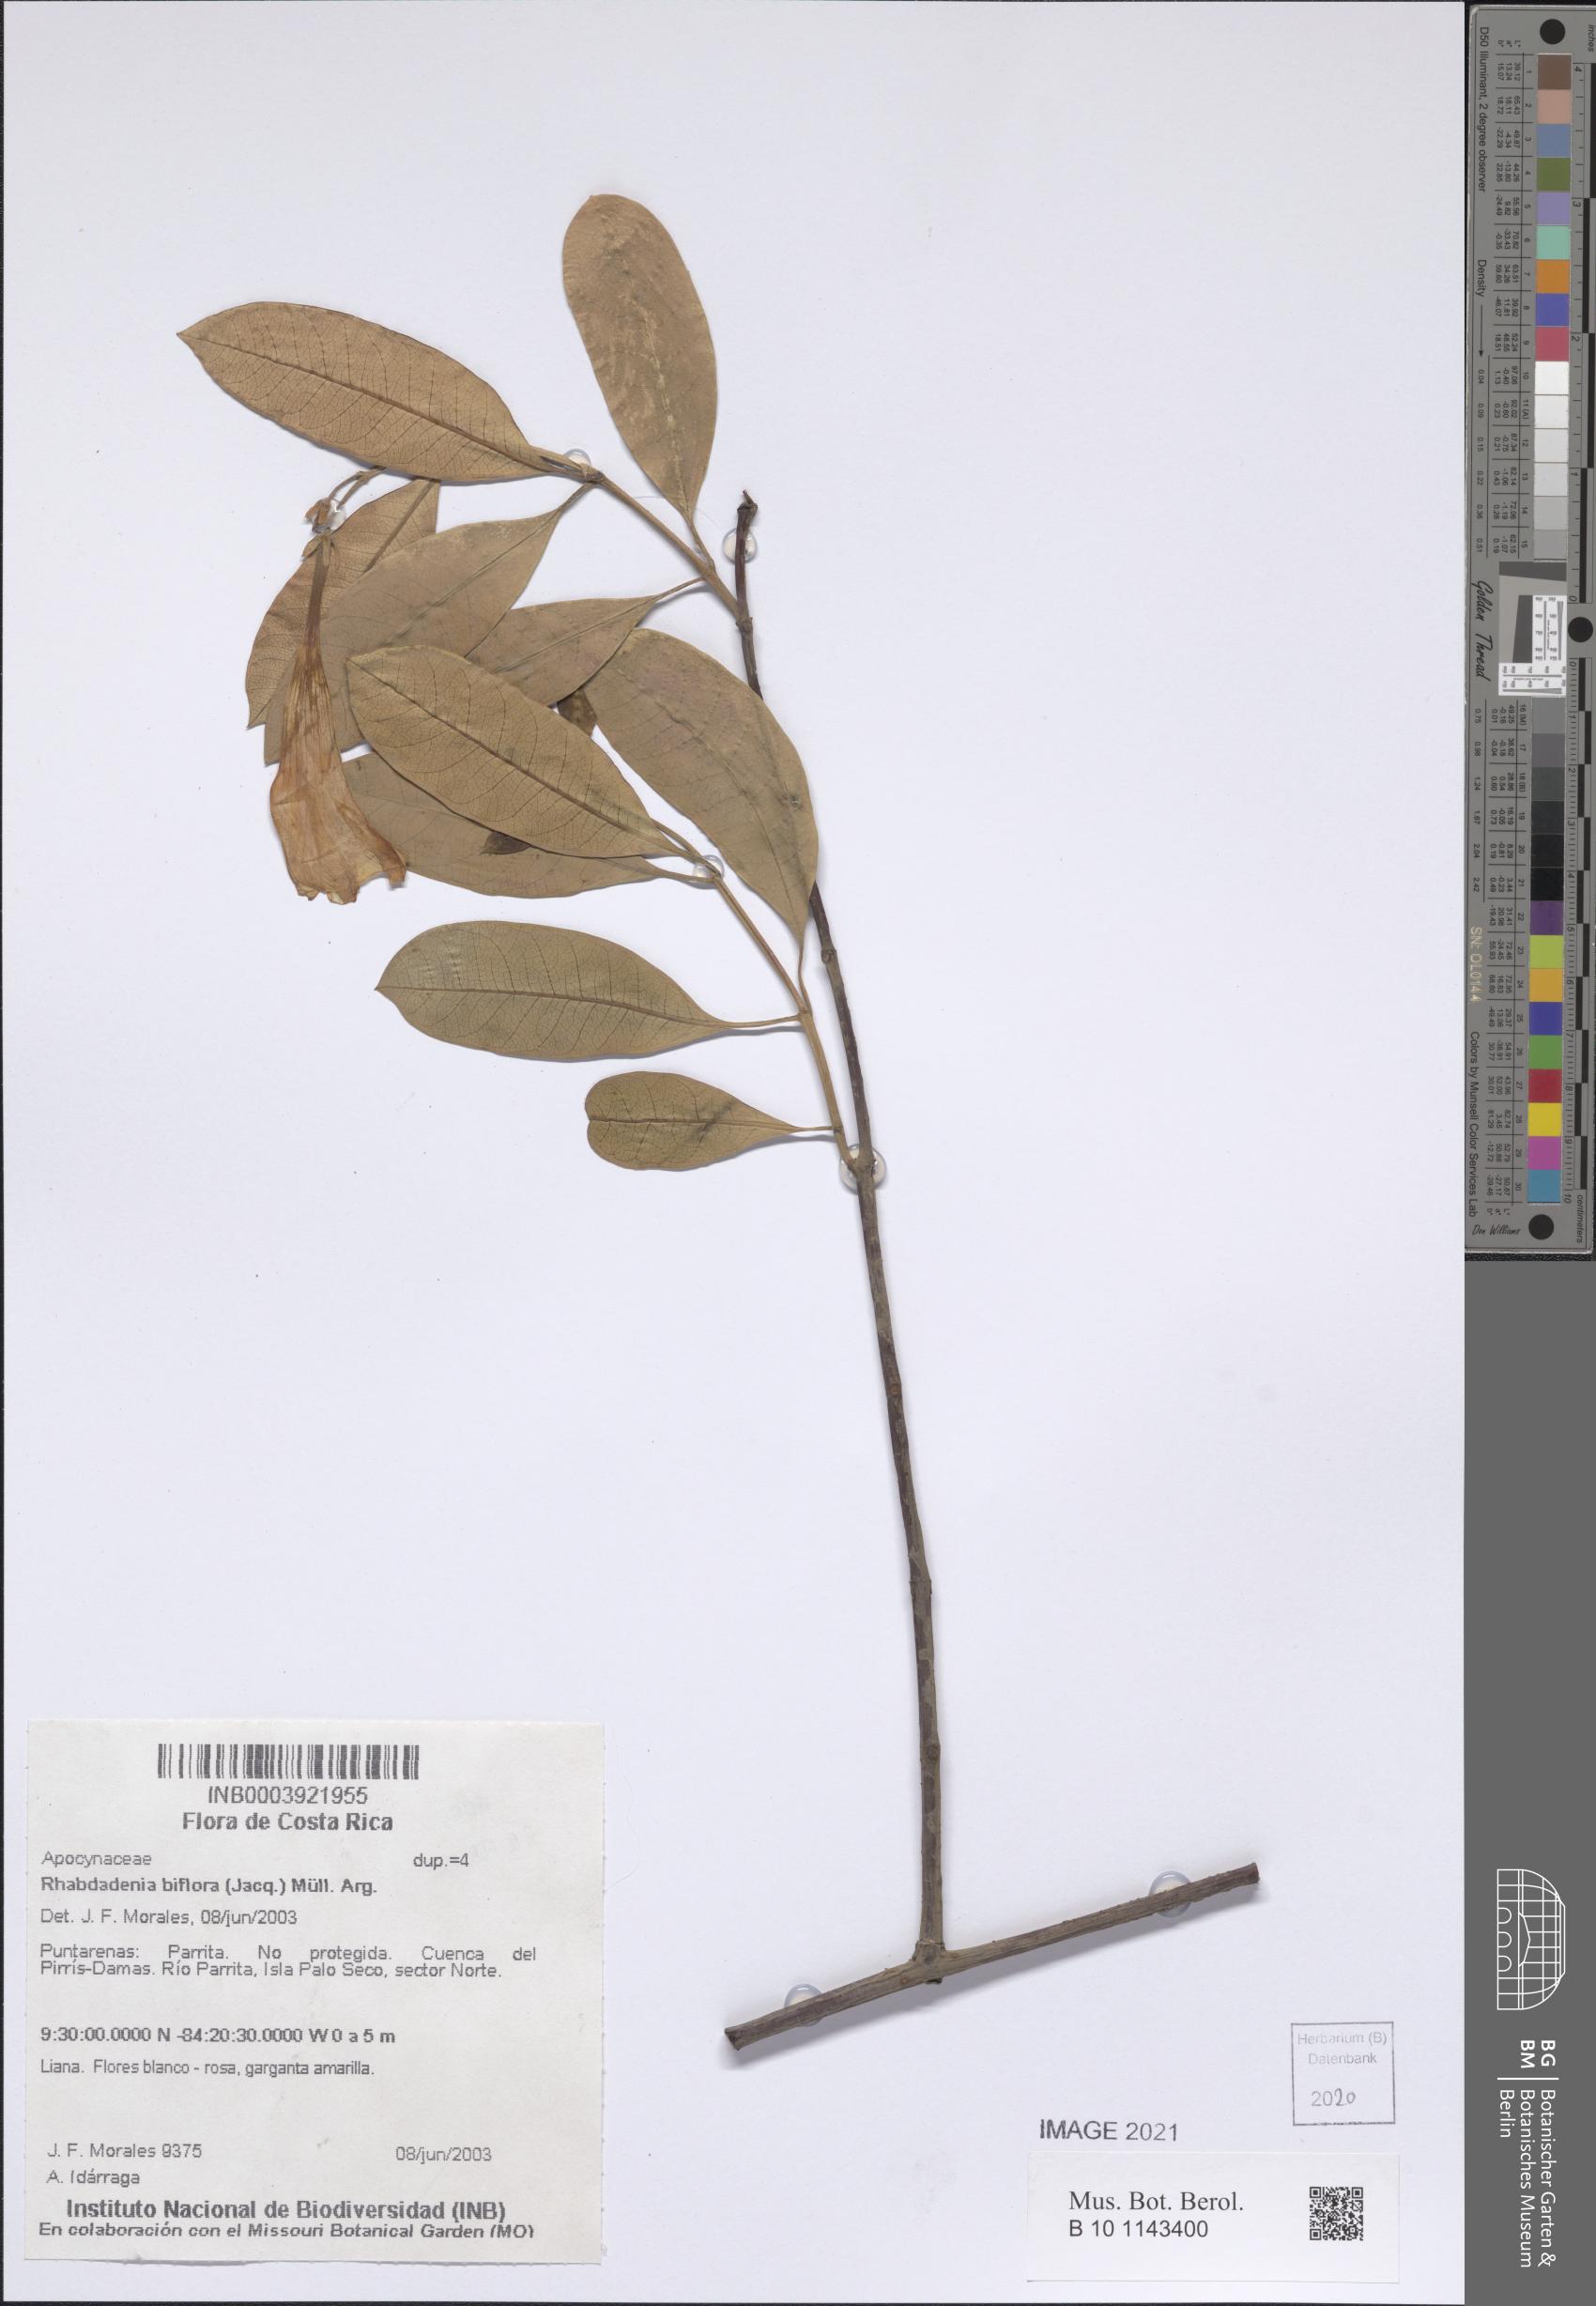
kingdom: Plantae
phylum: Tracheophyta
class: Magnoliopsida
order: Gentianales
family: Apocynaceae
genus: Rhabdadenia
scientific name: Rhabdadenia biflora
